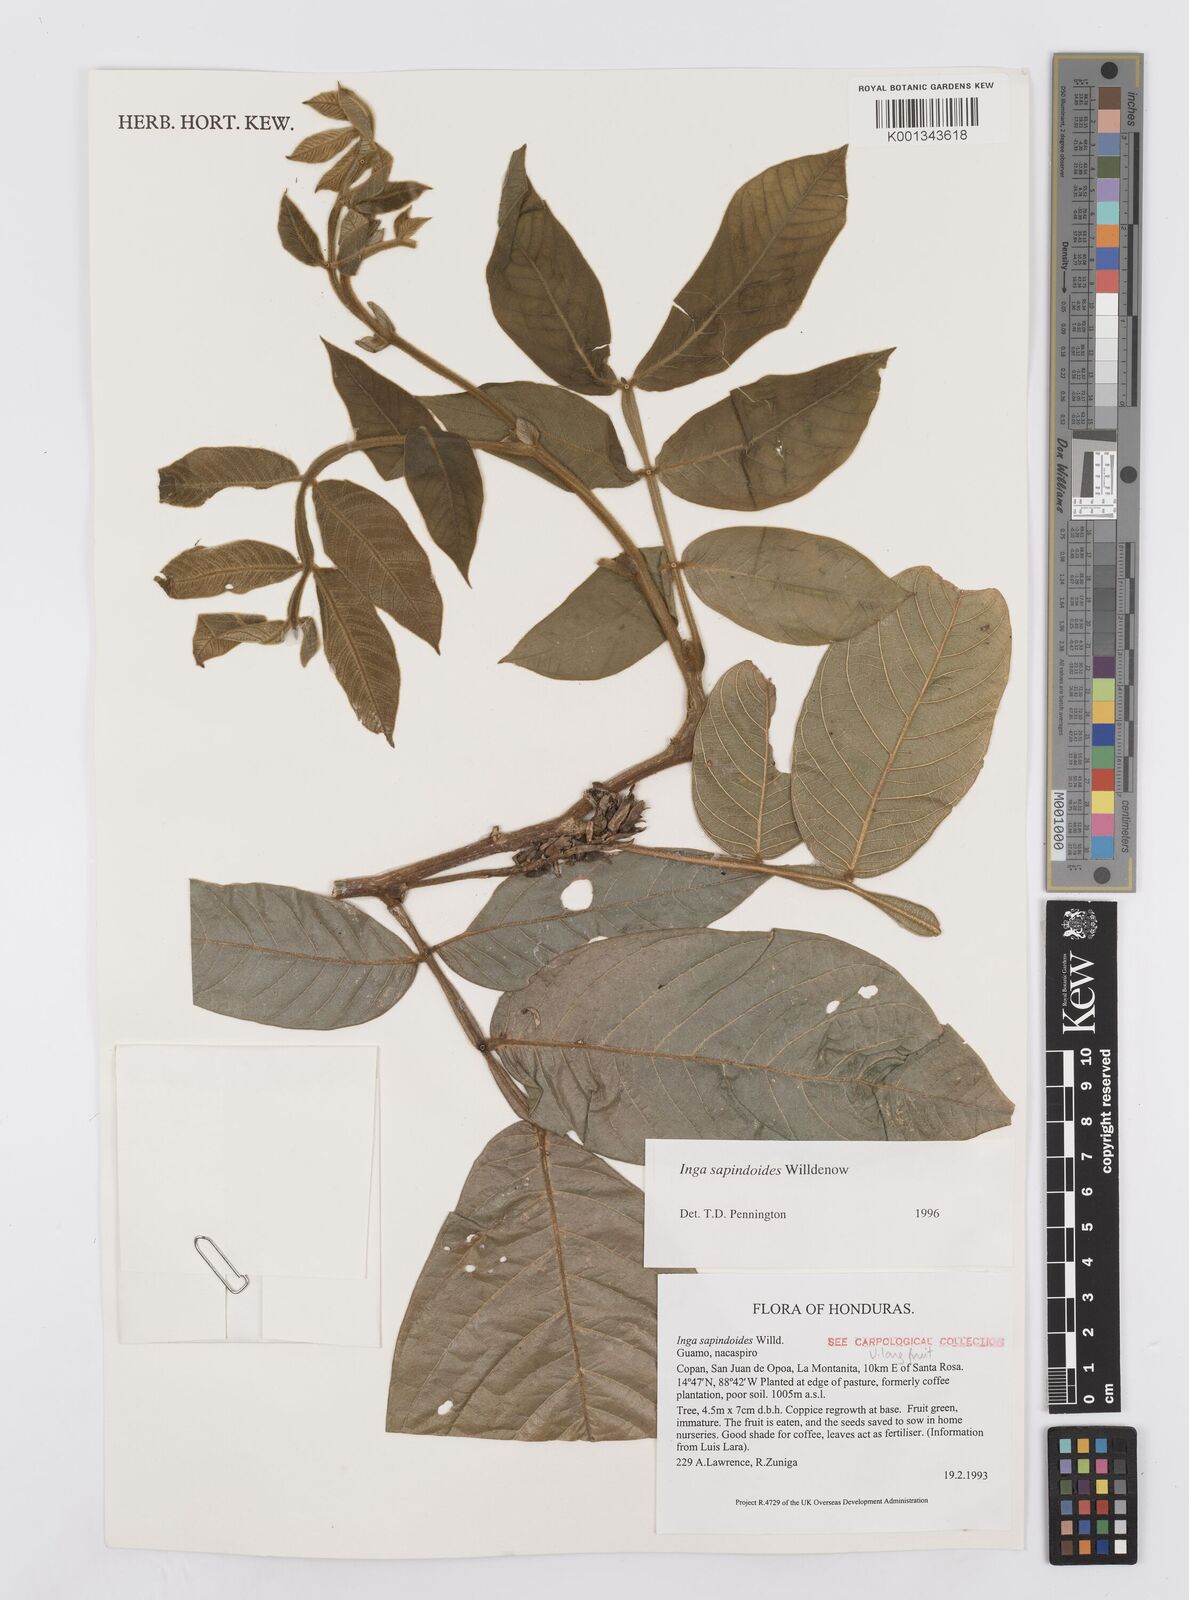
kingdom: Plantae
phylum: Tracheophyta
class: Magnoliopsida
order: Fabales
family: Fabaceae
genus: Inga
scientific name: Inga sapindoides
